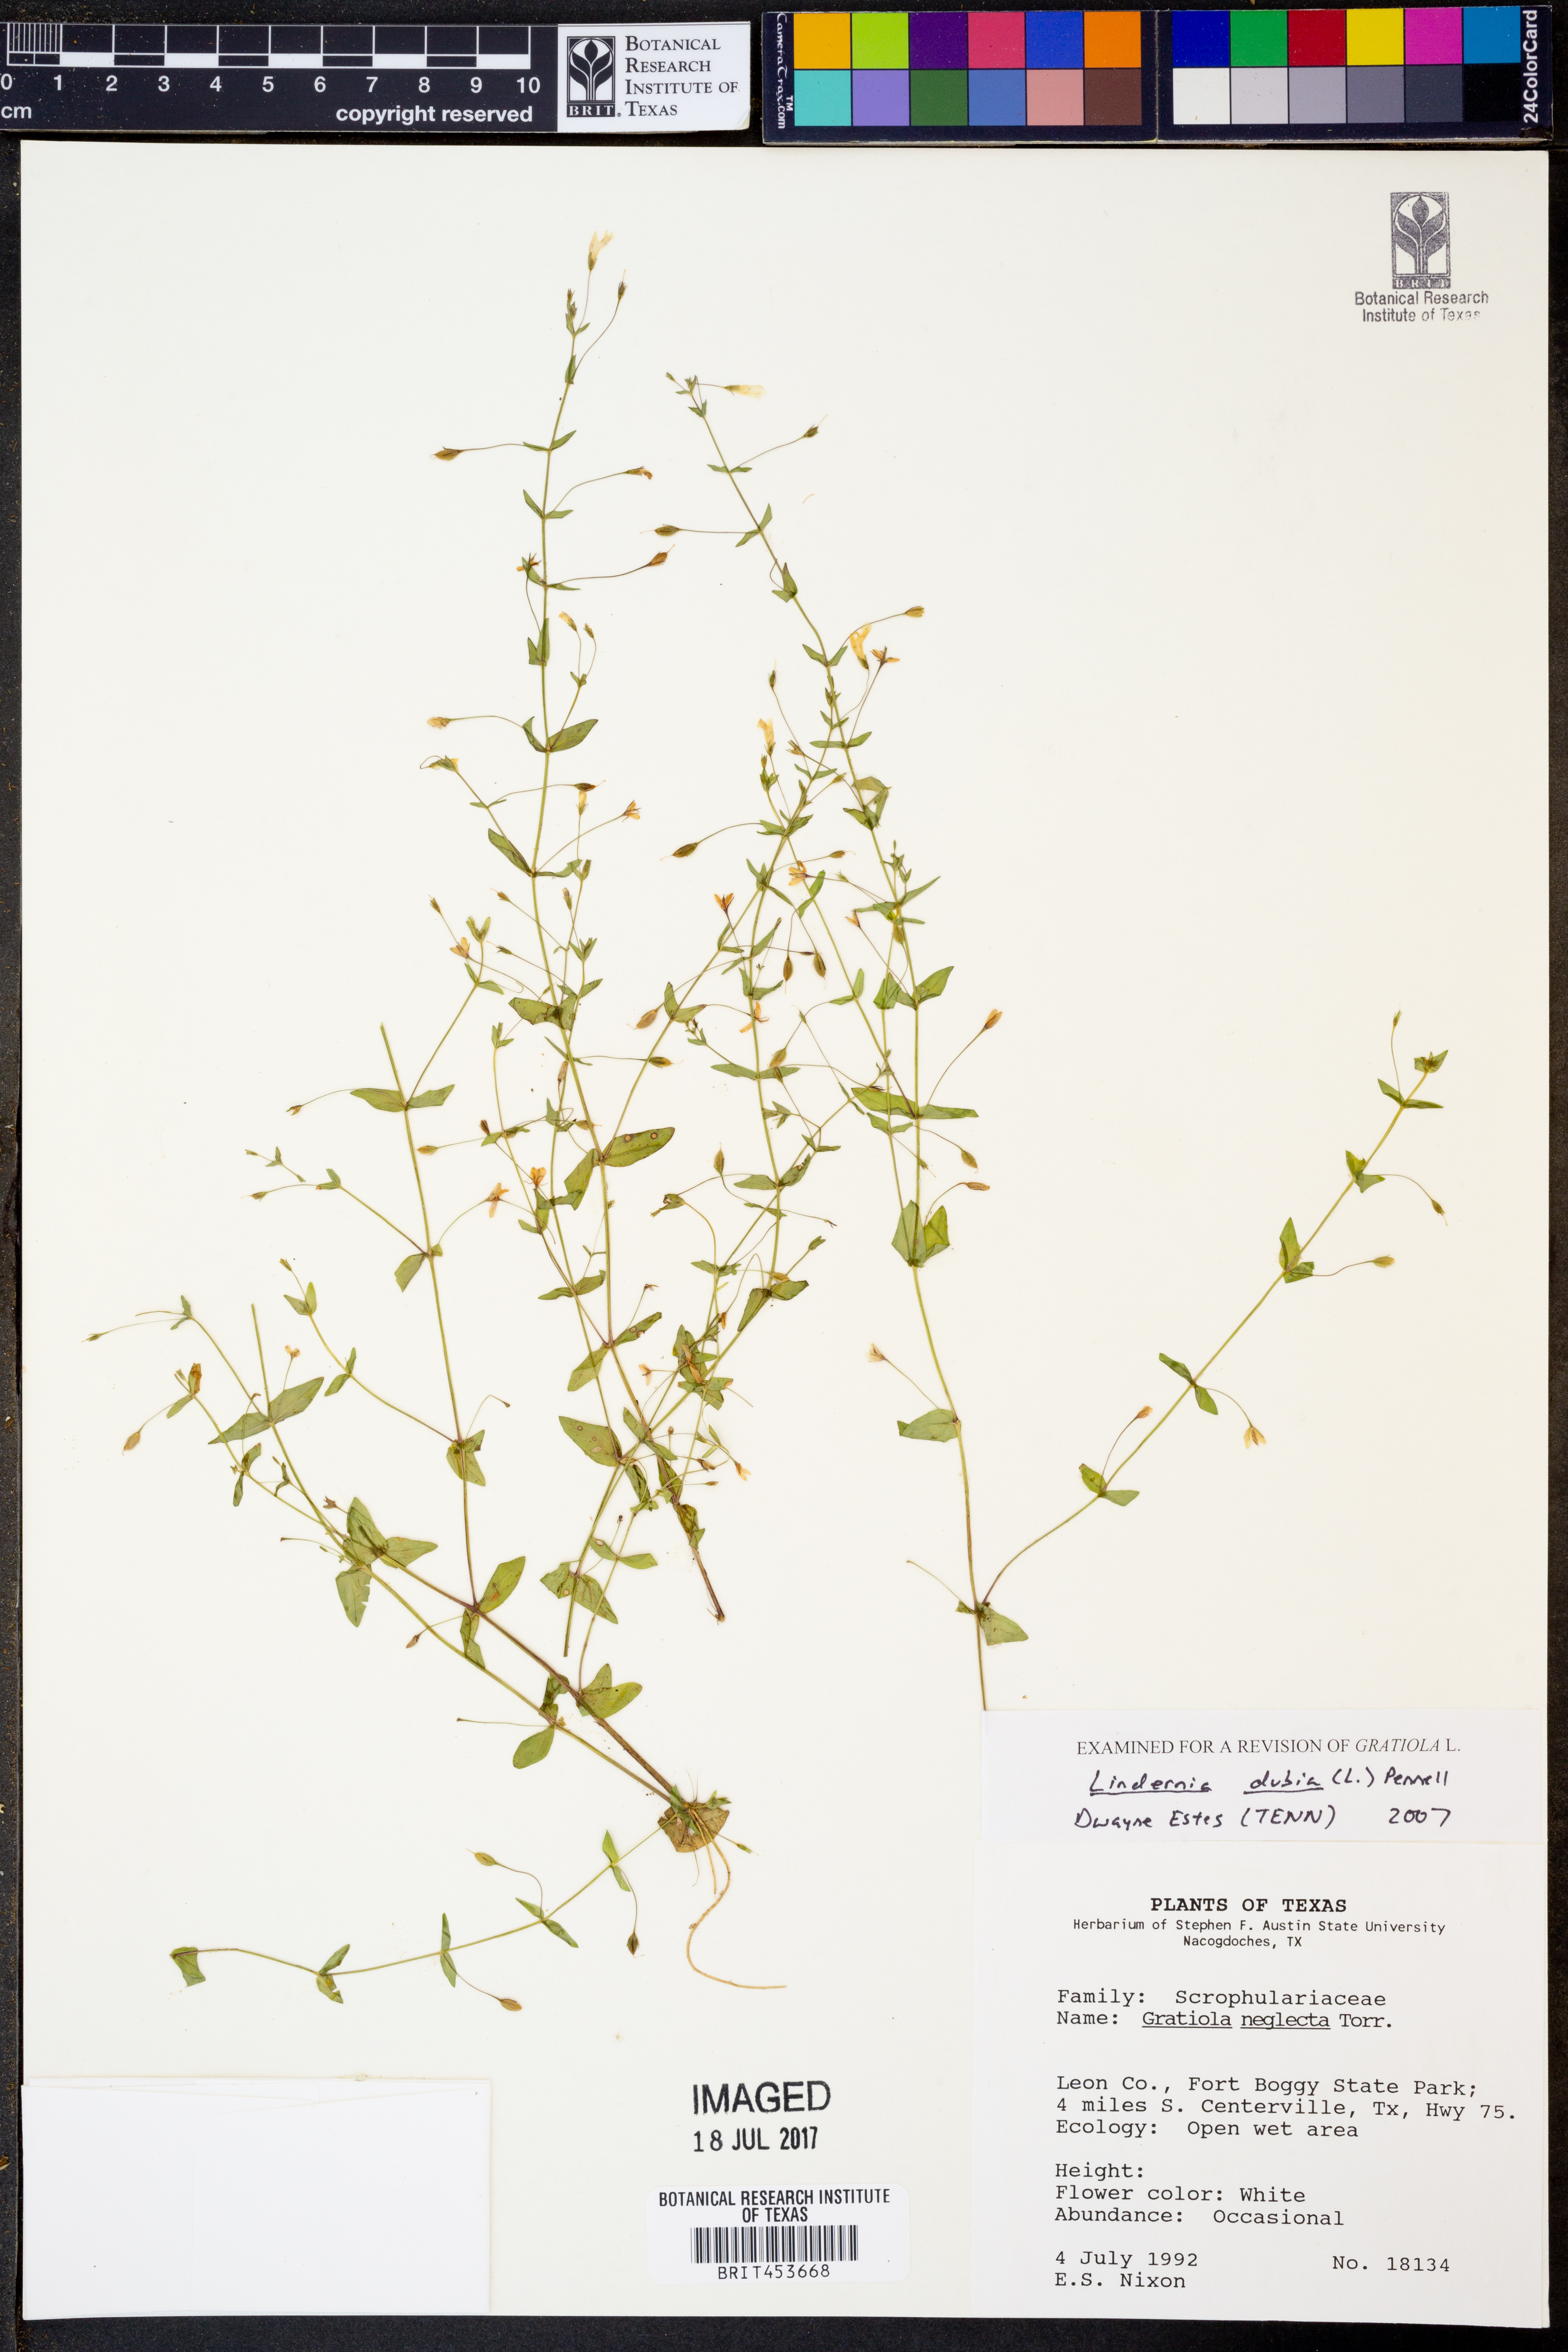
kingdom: Plantae
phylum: Tracheophyta
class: Magnoliopsida
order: Lamiales
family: Linderniaceae
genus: Lindernia
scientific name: Lindernia dubia
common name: Annual false pimpernel
